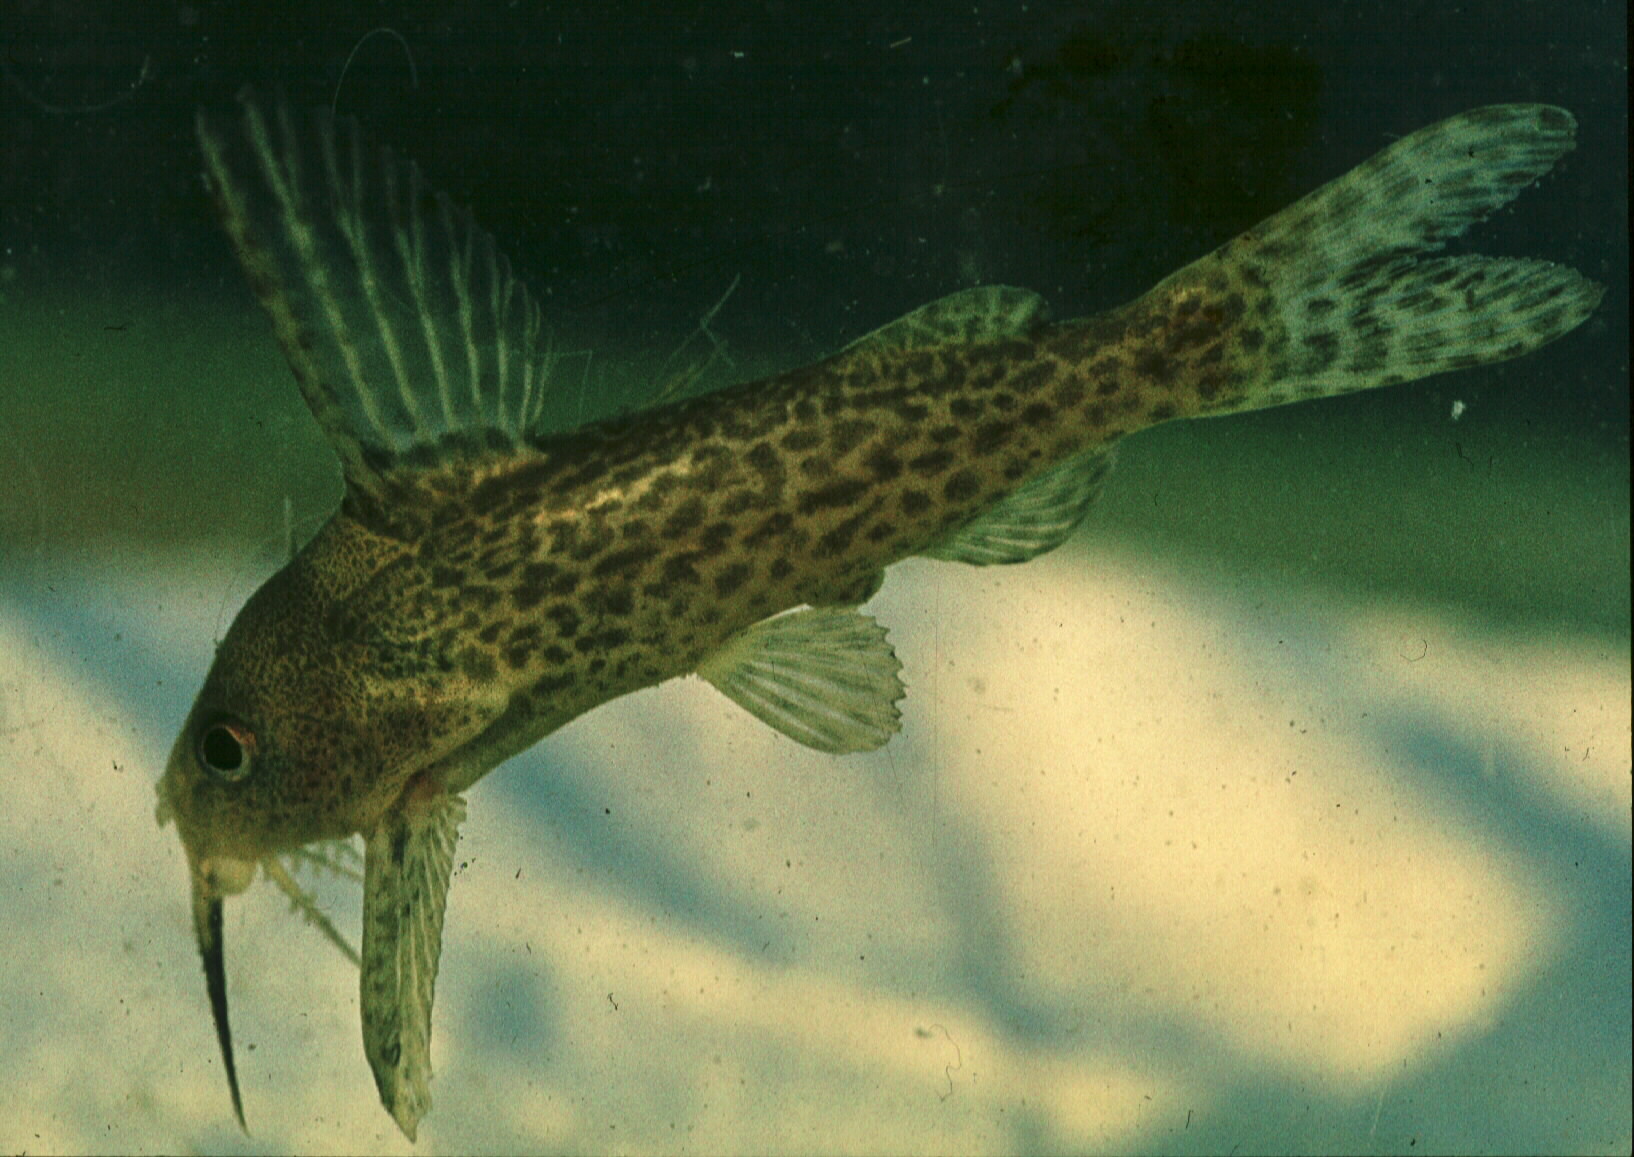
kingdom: Animalia
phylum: Chordata
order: Siluriformes
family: Mochokidae
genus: Synodontis
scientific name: Synodontis
